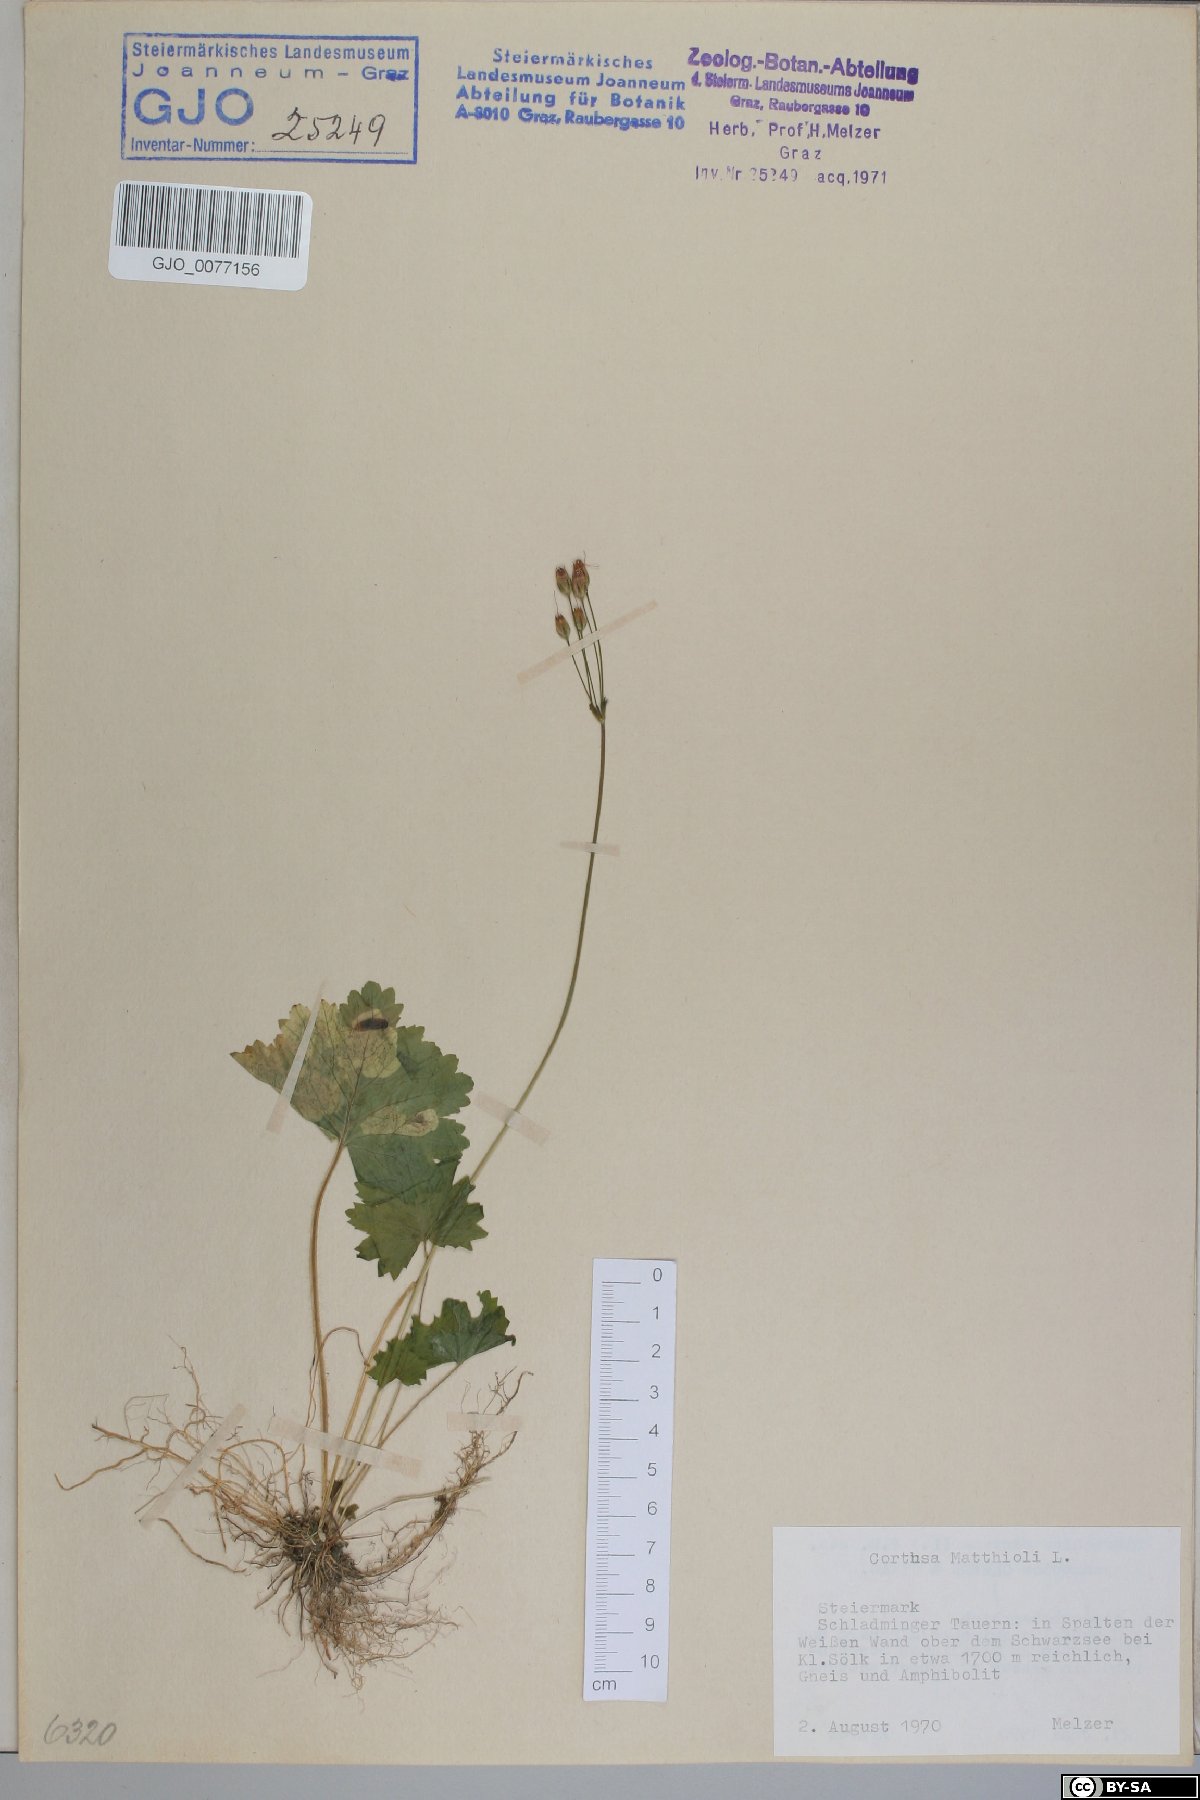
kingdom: Plantae
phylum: Tracheophyta
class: Magnoliopsida
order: Ericales
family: Primulaceae
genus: Primula
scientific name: Primula matthioli
